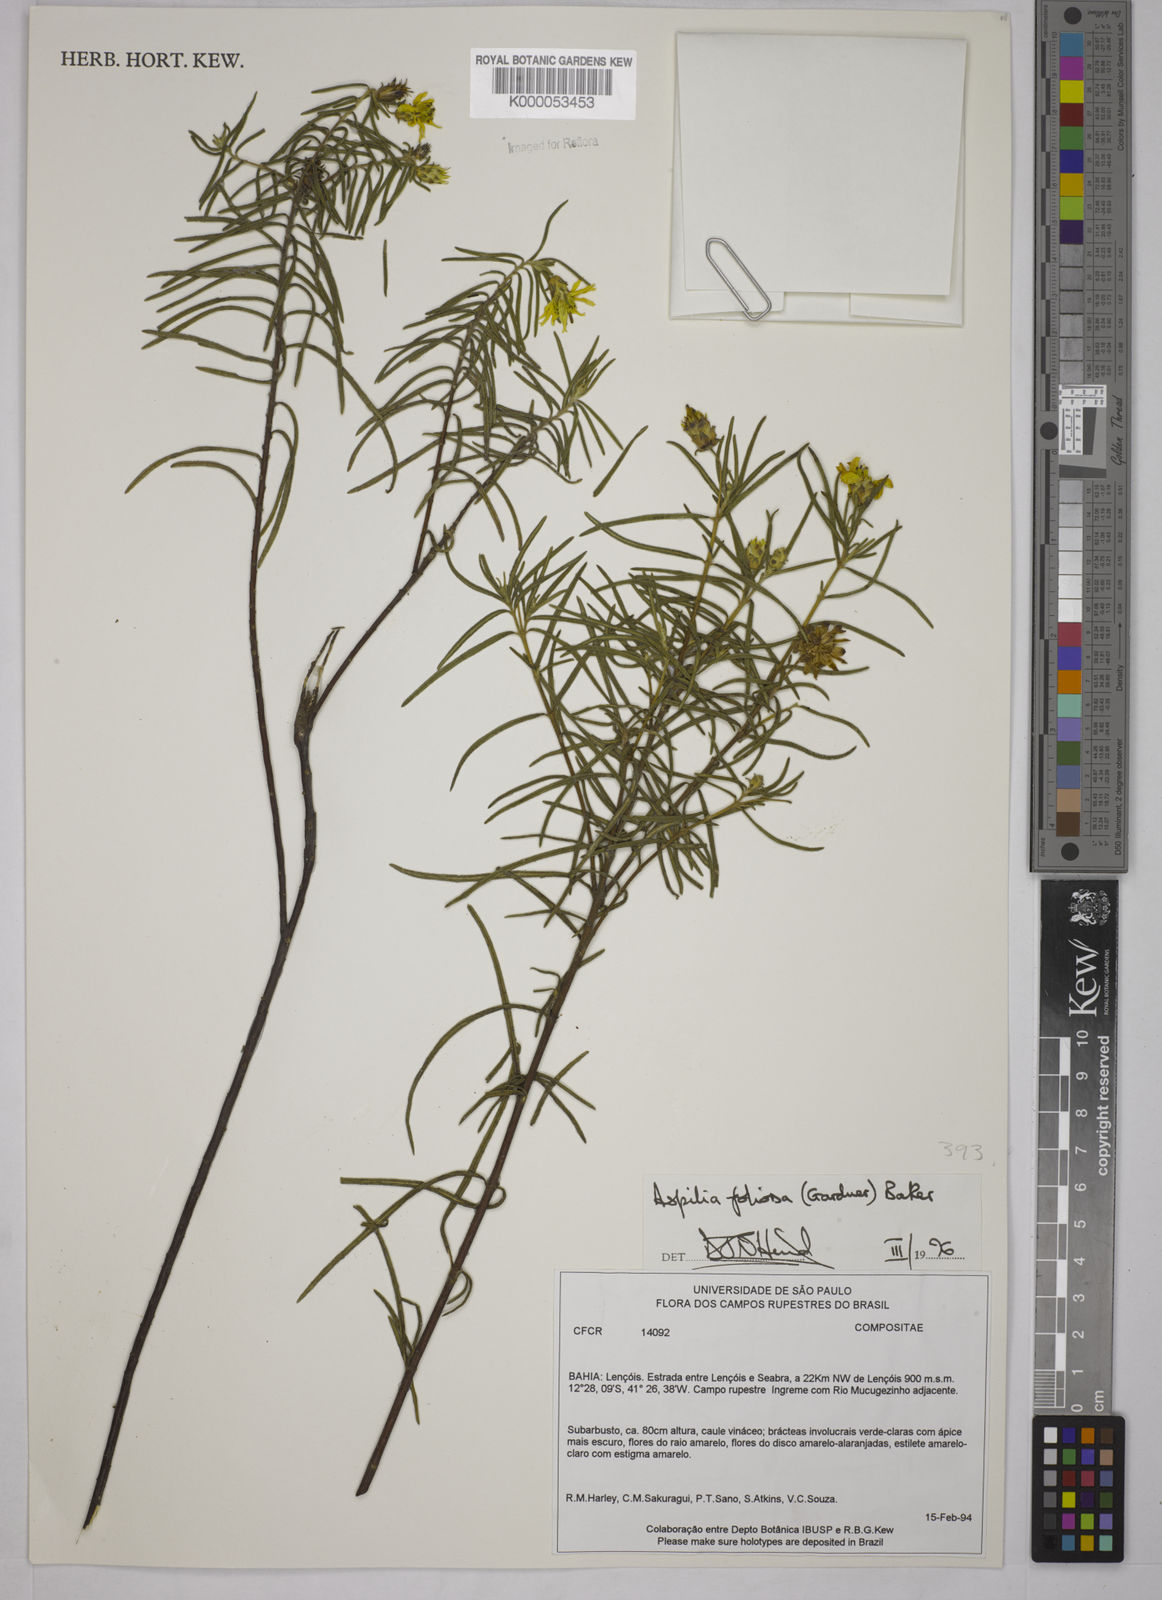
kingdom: Plantae
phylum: Tracheophyta
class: Magnoliopsida
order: Asterales
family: Asteraceae
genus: Aspilia
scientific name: Aspilia
